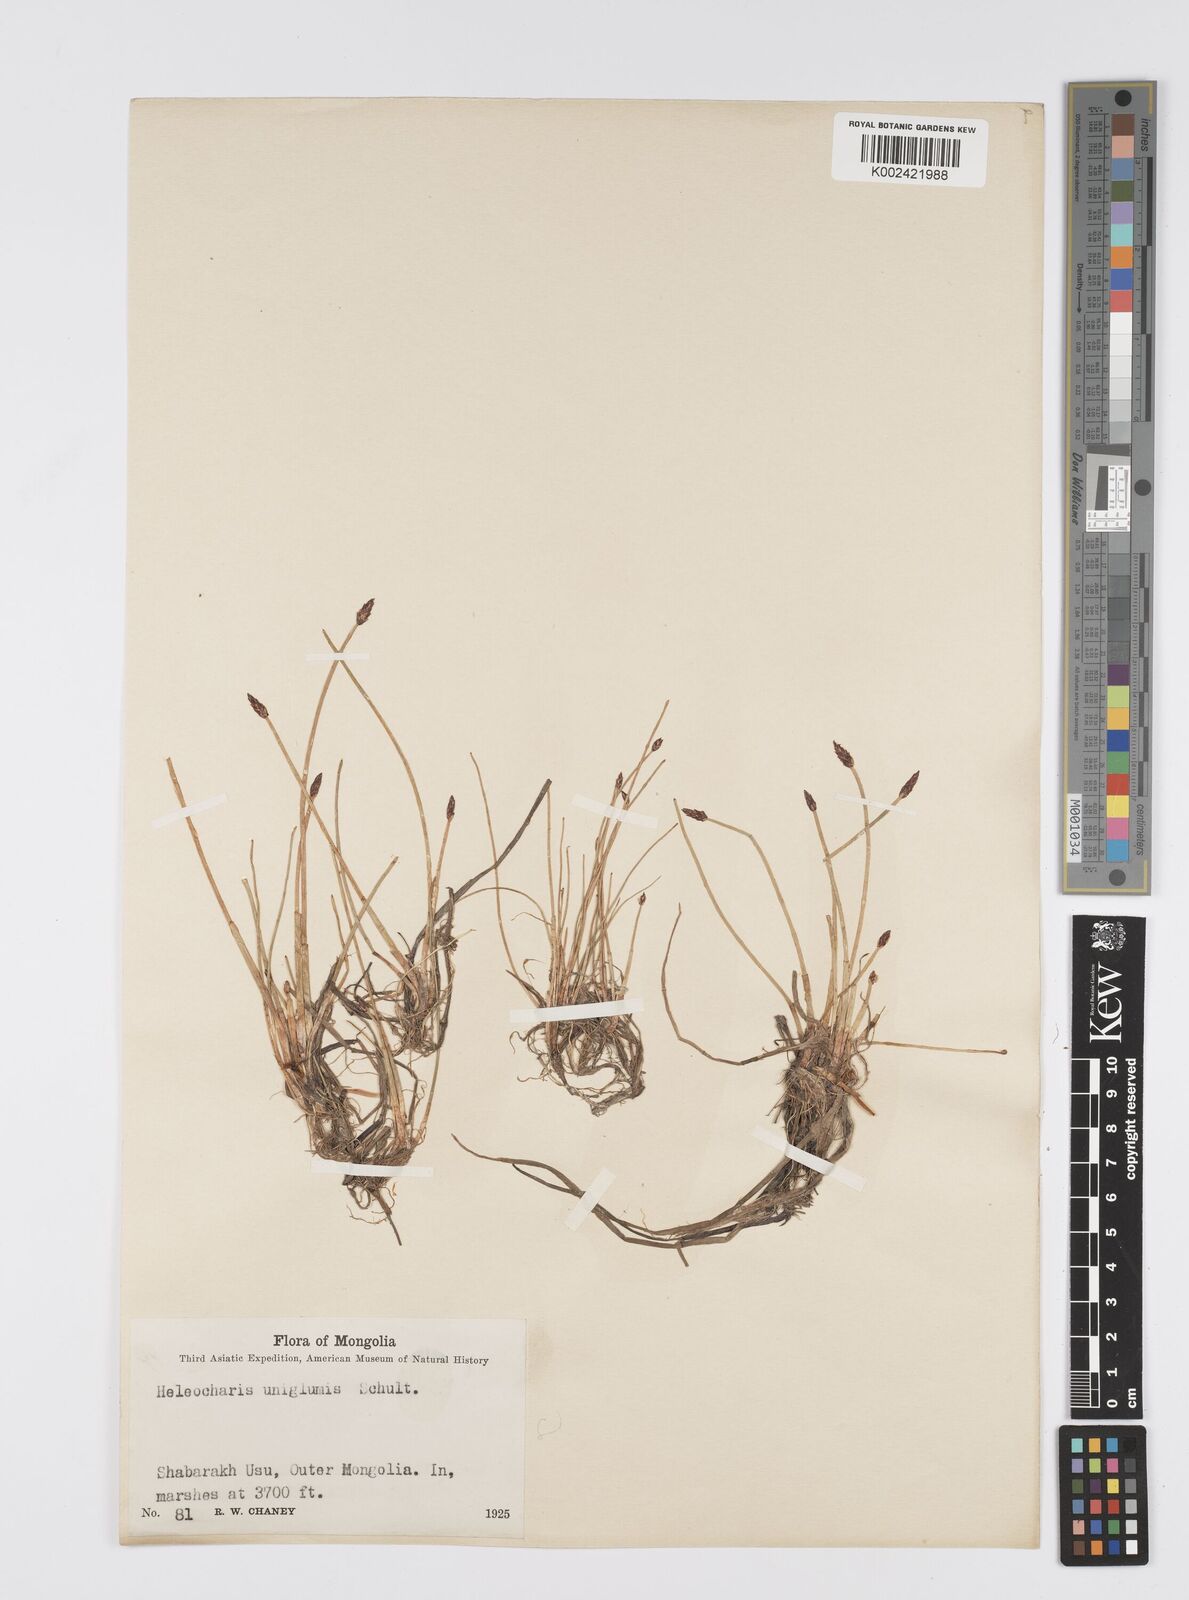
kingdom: Plantae
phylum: Tracheophyta
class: Liliopsida
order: Poales
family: Cyperaceae
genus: Eleocharis
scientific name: Eleocharis uniglumis
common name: Slender spike-rush
